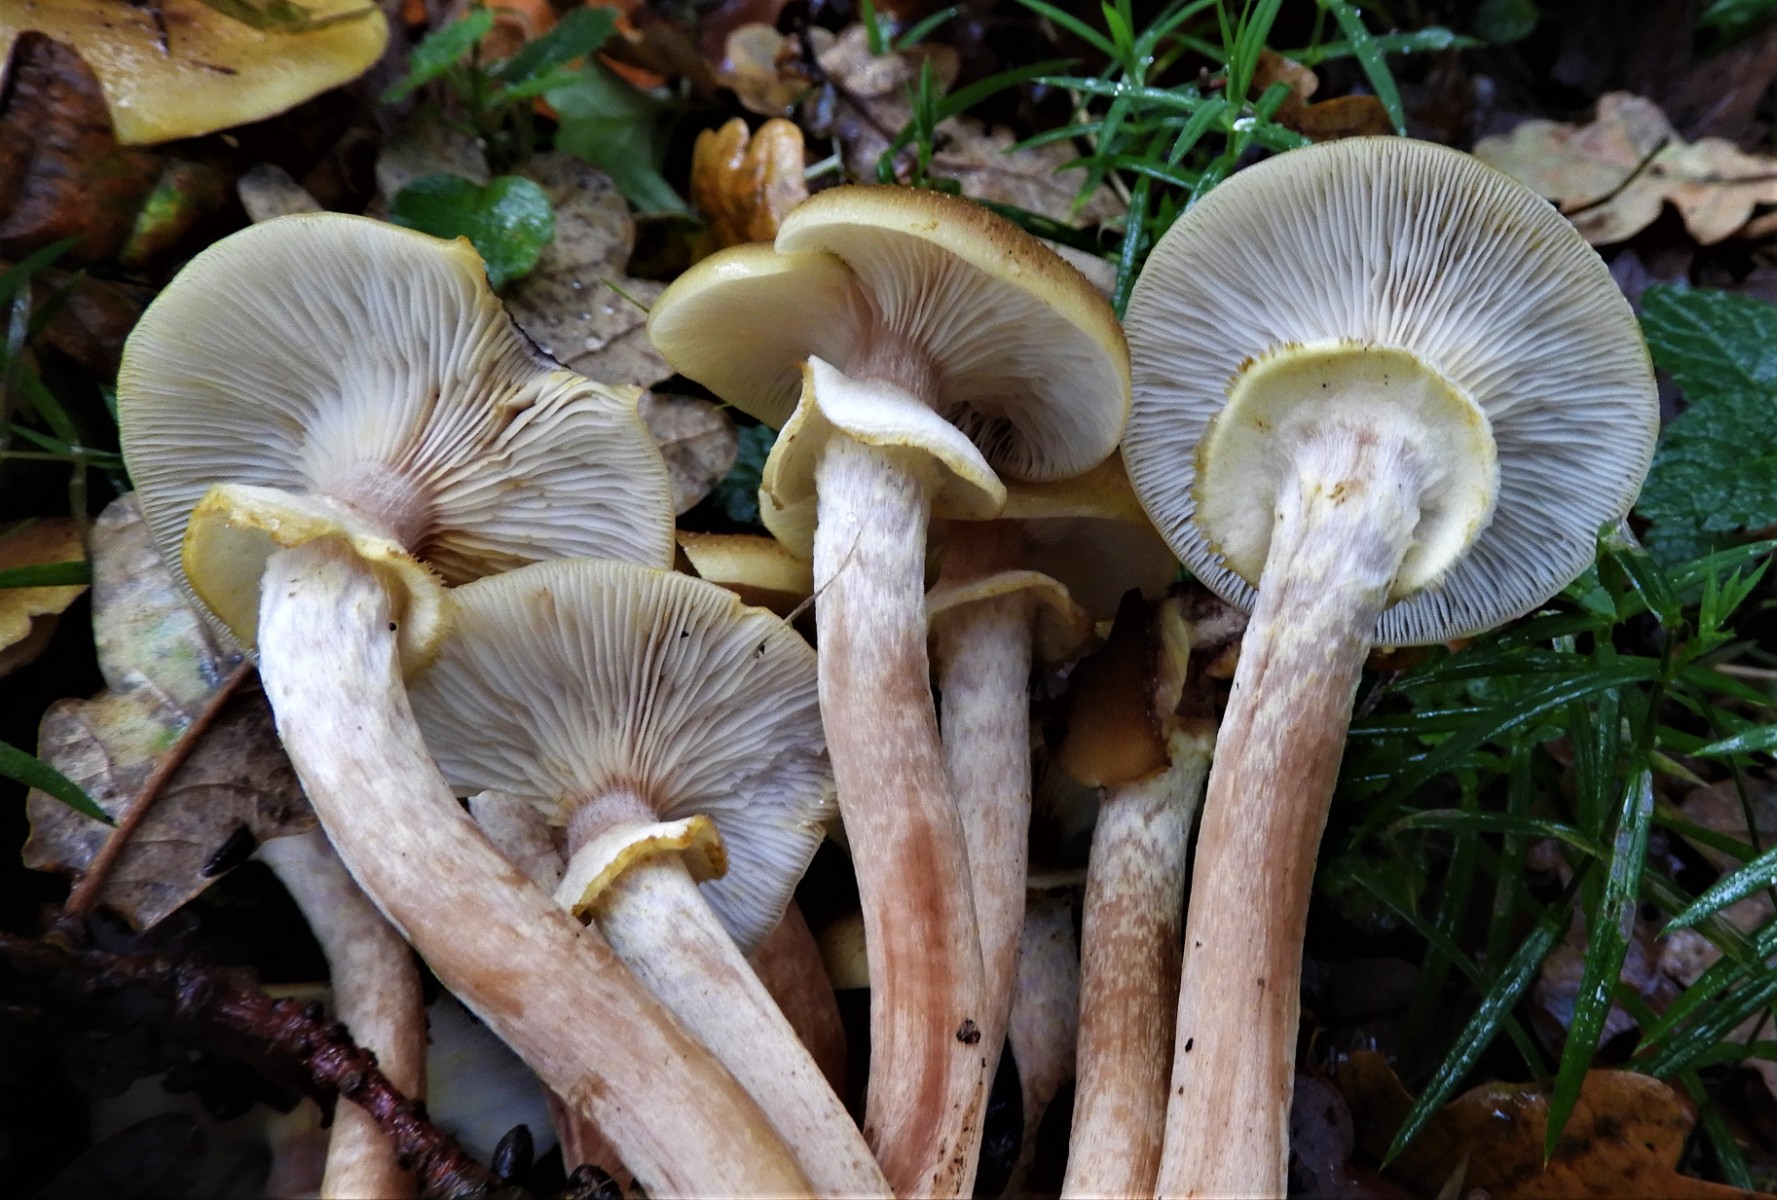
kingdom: Fungi
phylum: Basidiomycota
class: Agaricomycetes
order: Agaricales
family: Physalacriaceae
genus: Armillaria
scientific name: Armillaria mellea
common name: ægte honningsvamp
